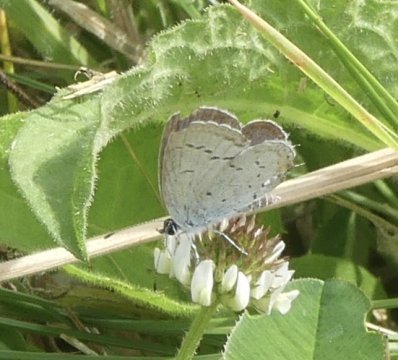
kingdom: Animalia
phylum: Arthropoda
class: Insecta
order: Lepidoptera
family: Lycaenidae
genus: Elkalyce
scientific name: Elkalyce comyntas
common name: Eastern Tailed-Blue
